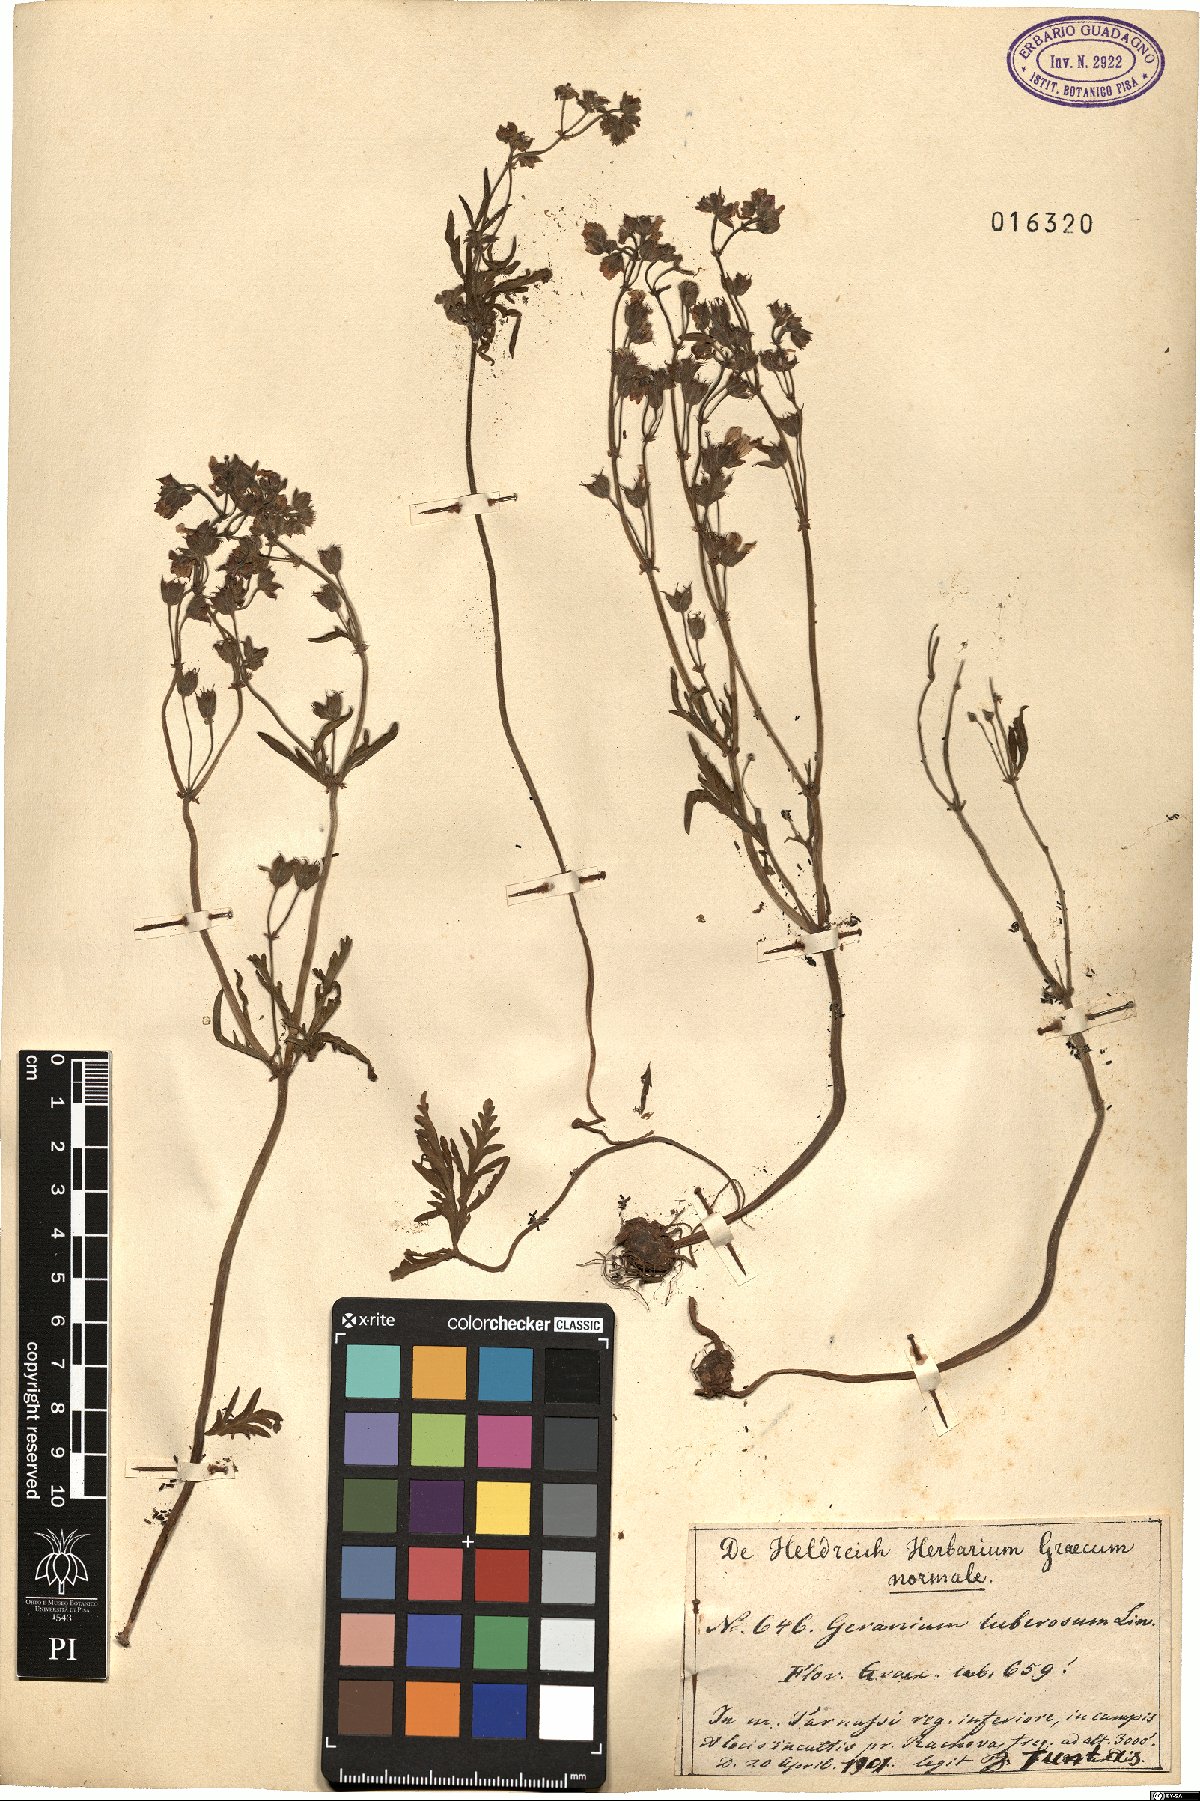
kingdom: Plantae
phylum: Tracheophyta
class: Magnoliopsida
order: Geraniales
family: Geraniaceae
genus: Geranium
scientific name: Geranium tuberosum
